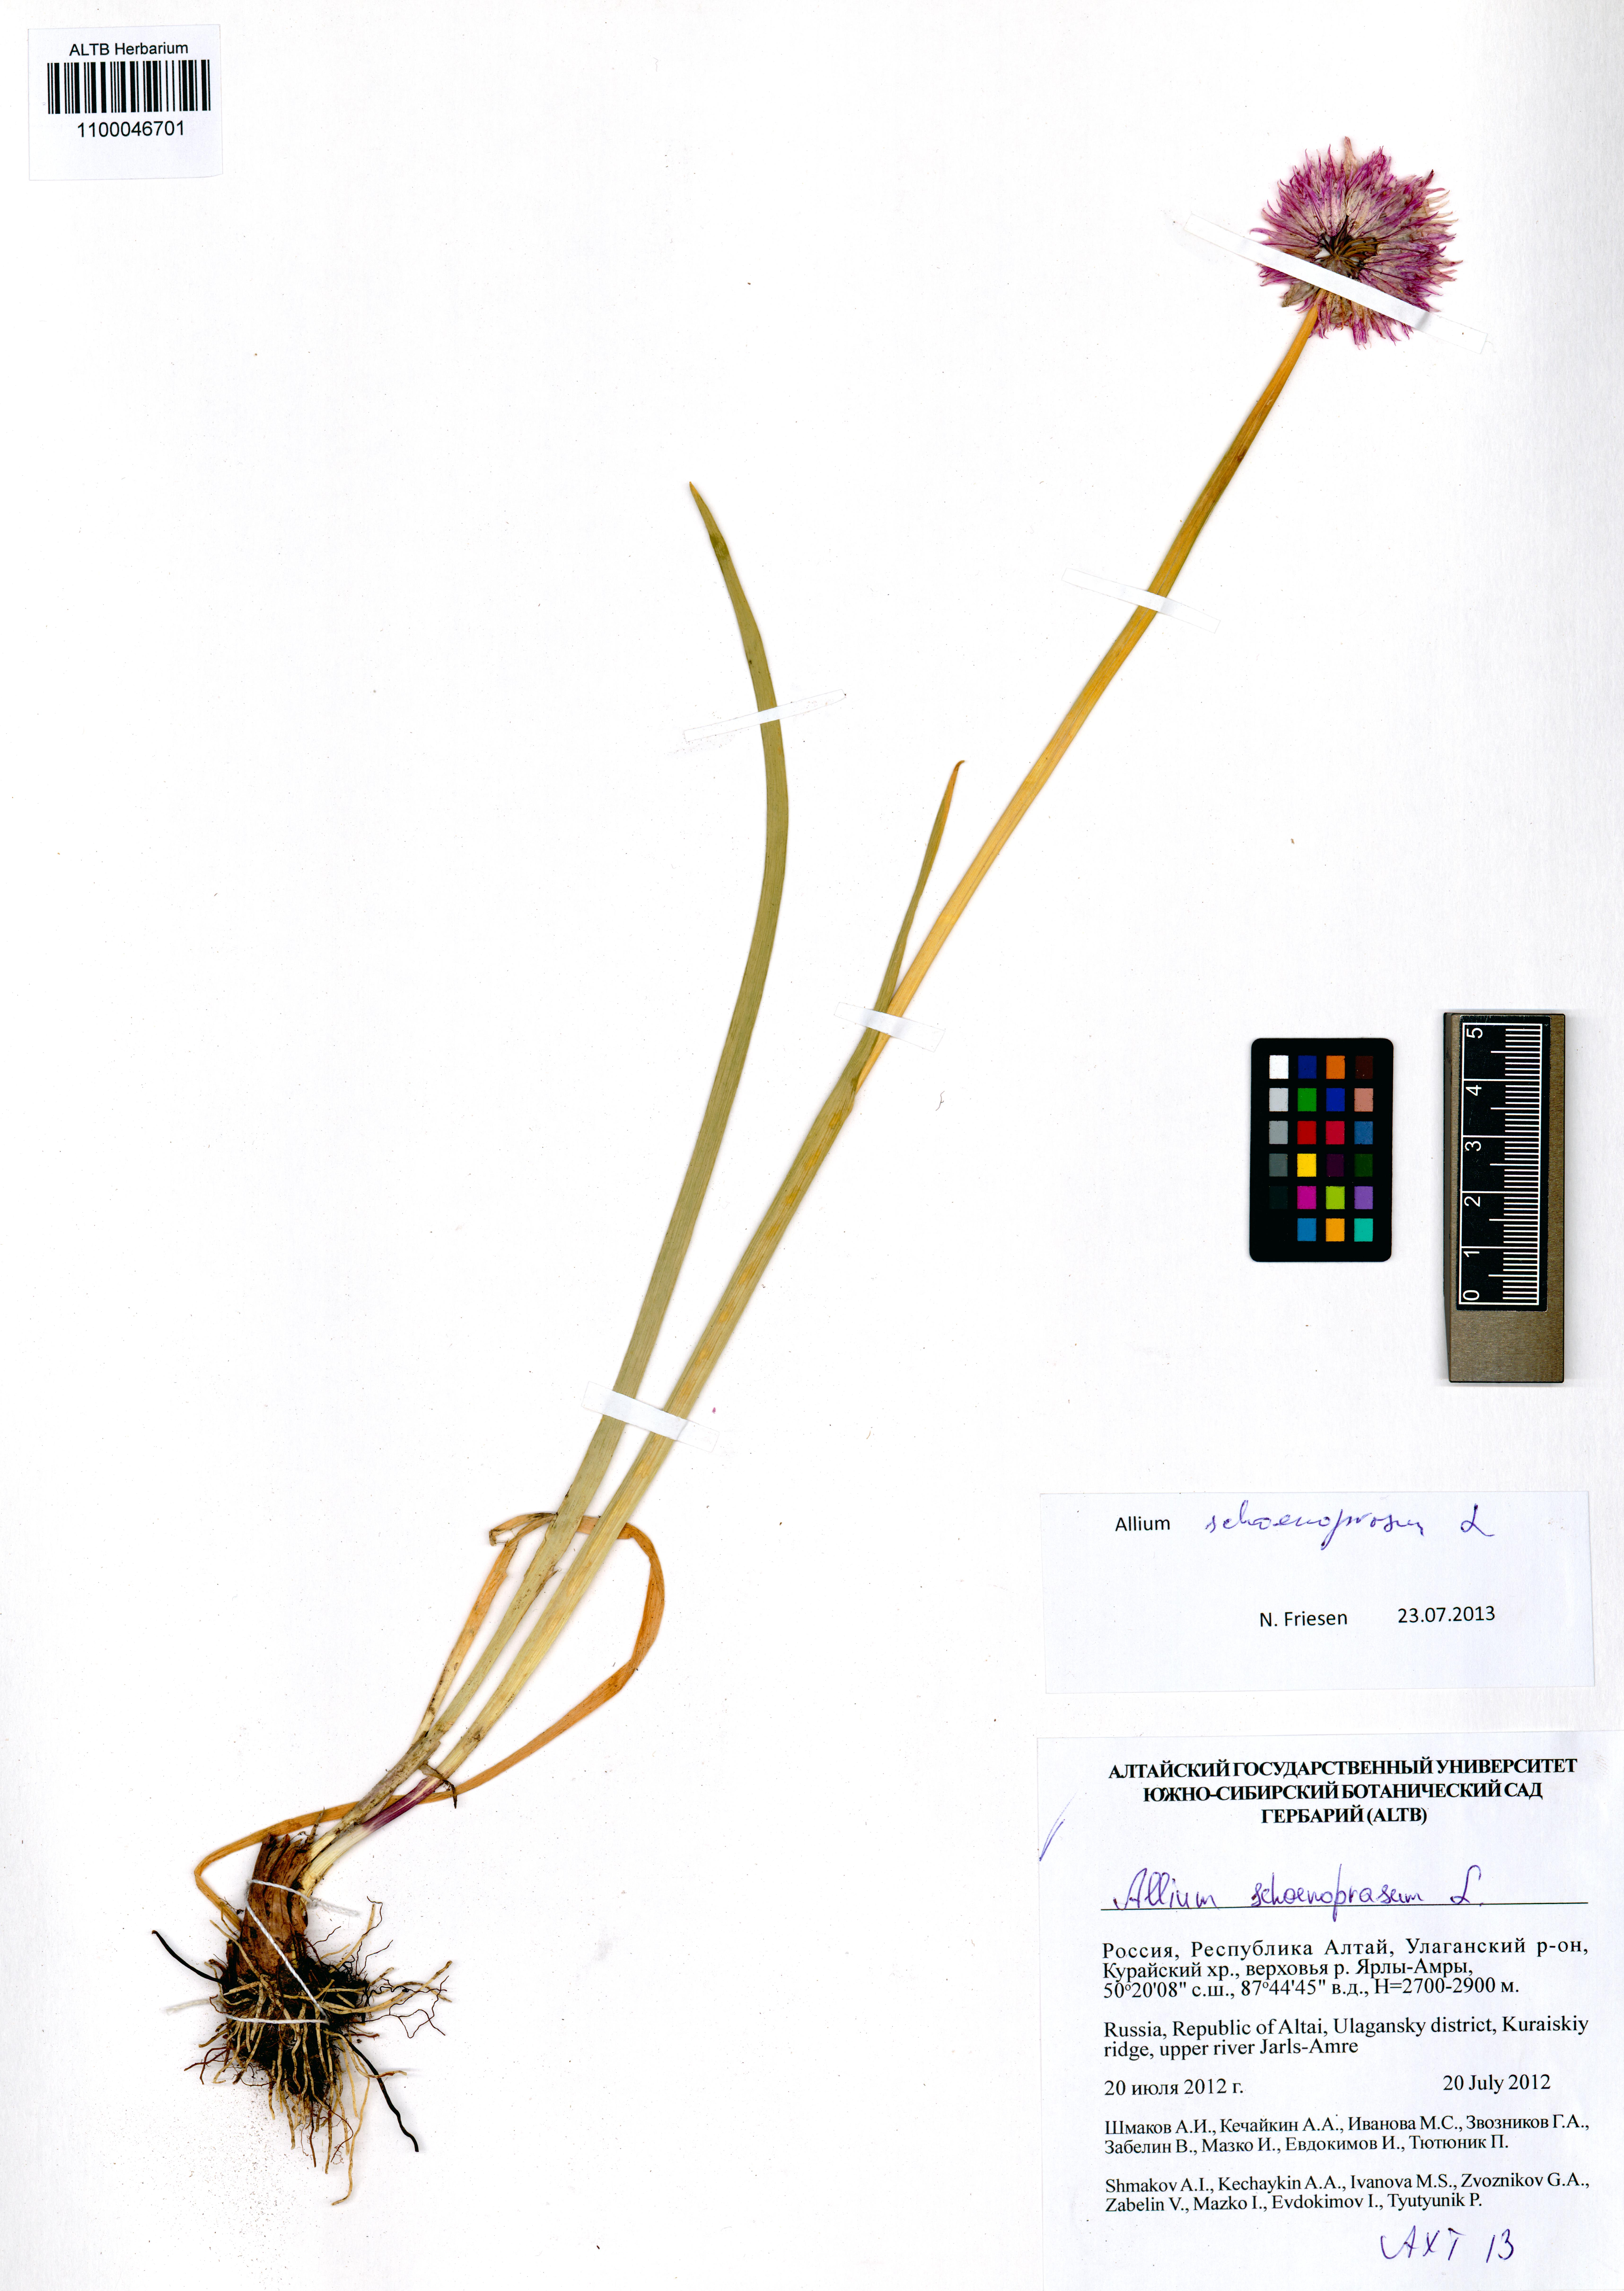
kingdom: Plantae
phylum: Tracheophyta
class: Liliopsida
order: Asparagales
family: Amaryllidaceae
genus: Allium
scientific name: Allium schoenoprasum
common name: Chives
